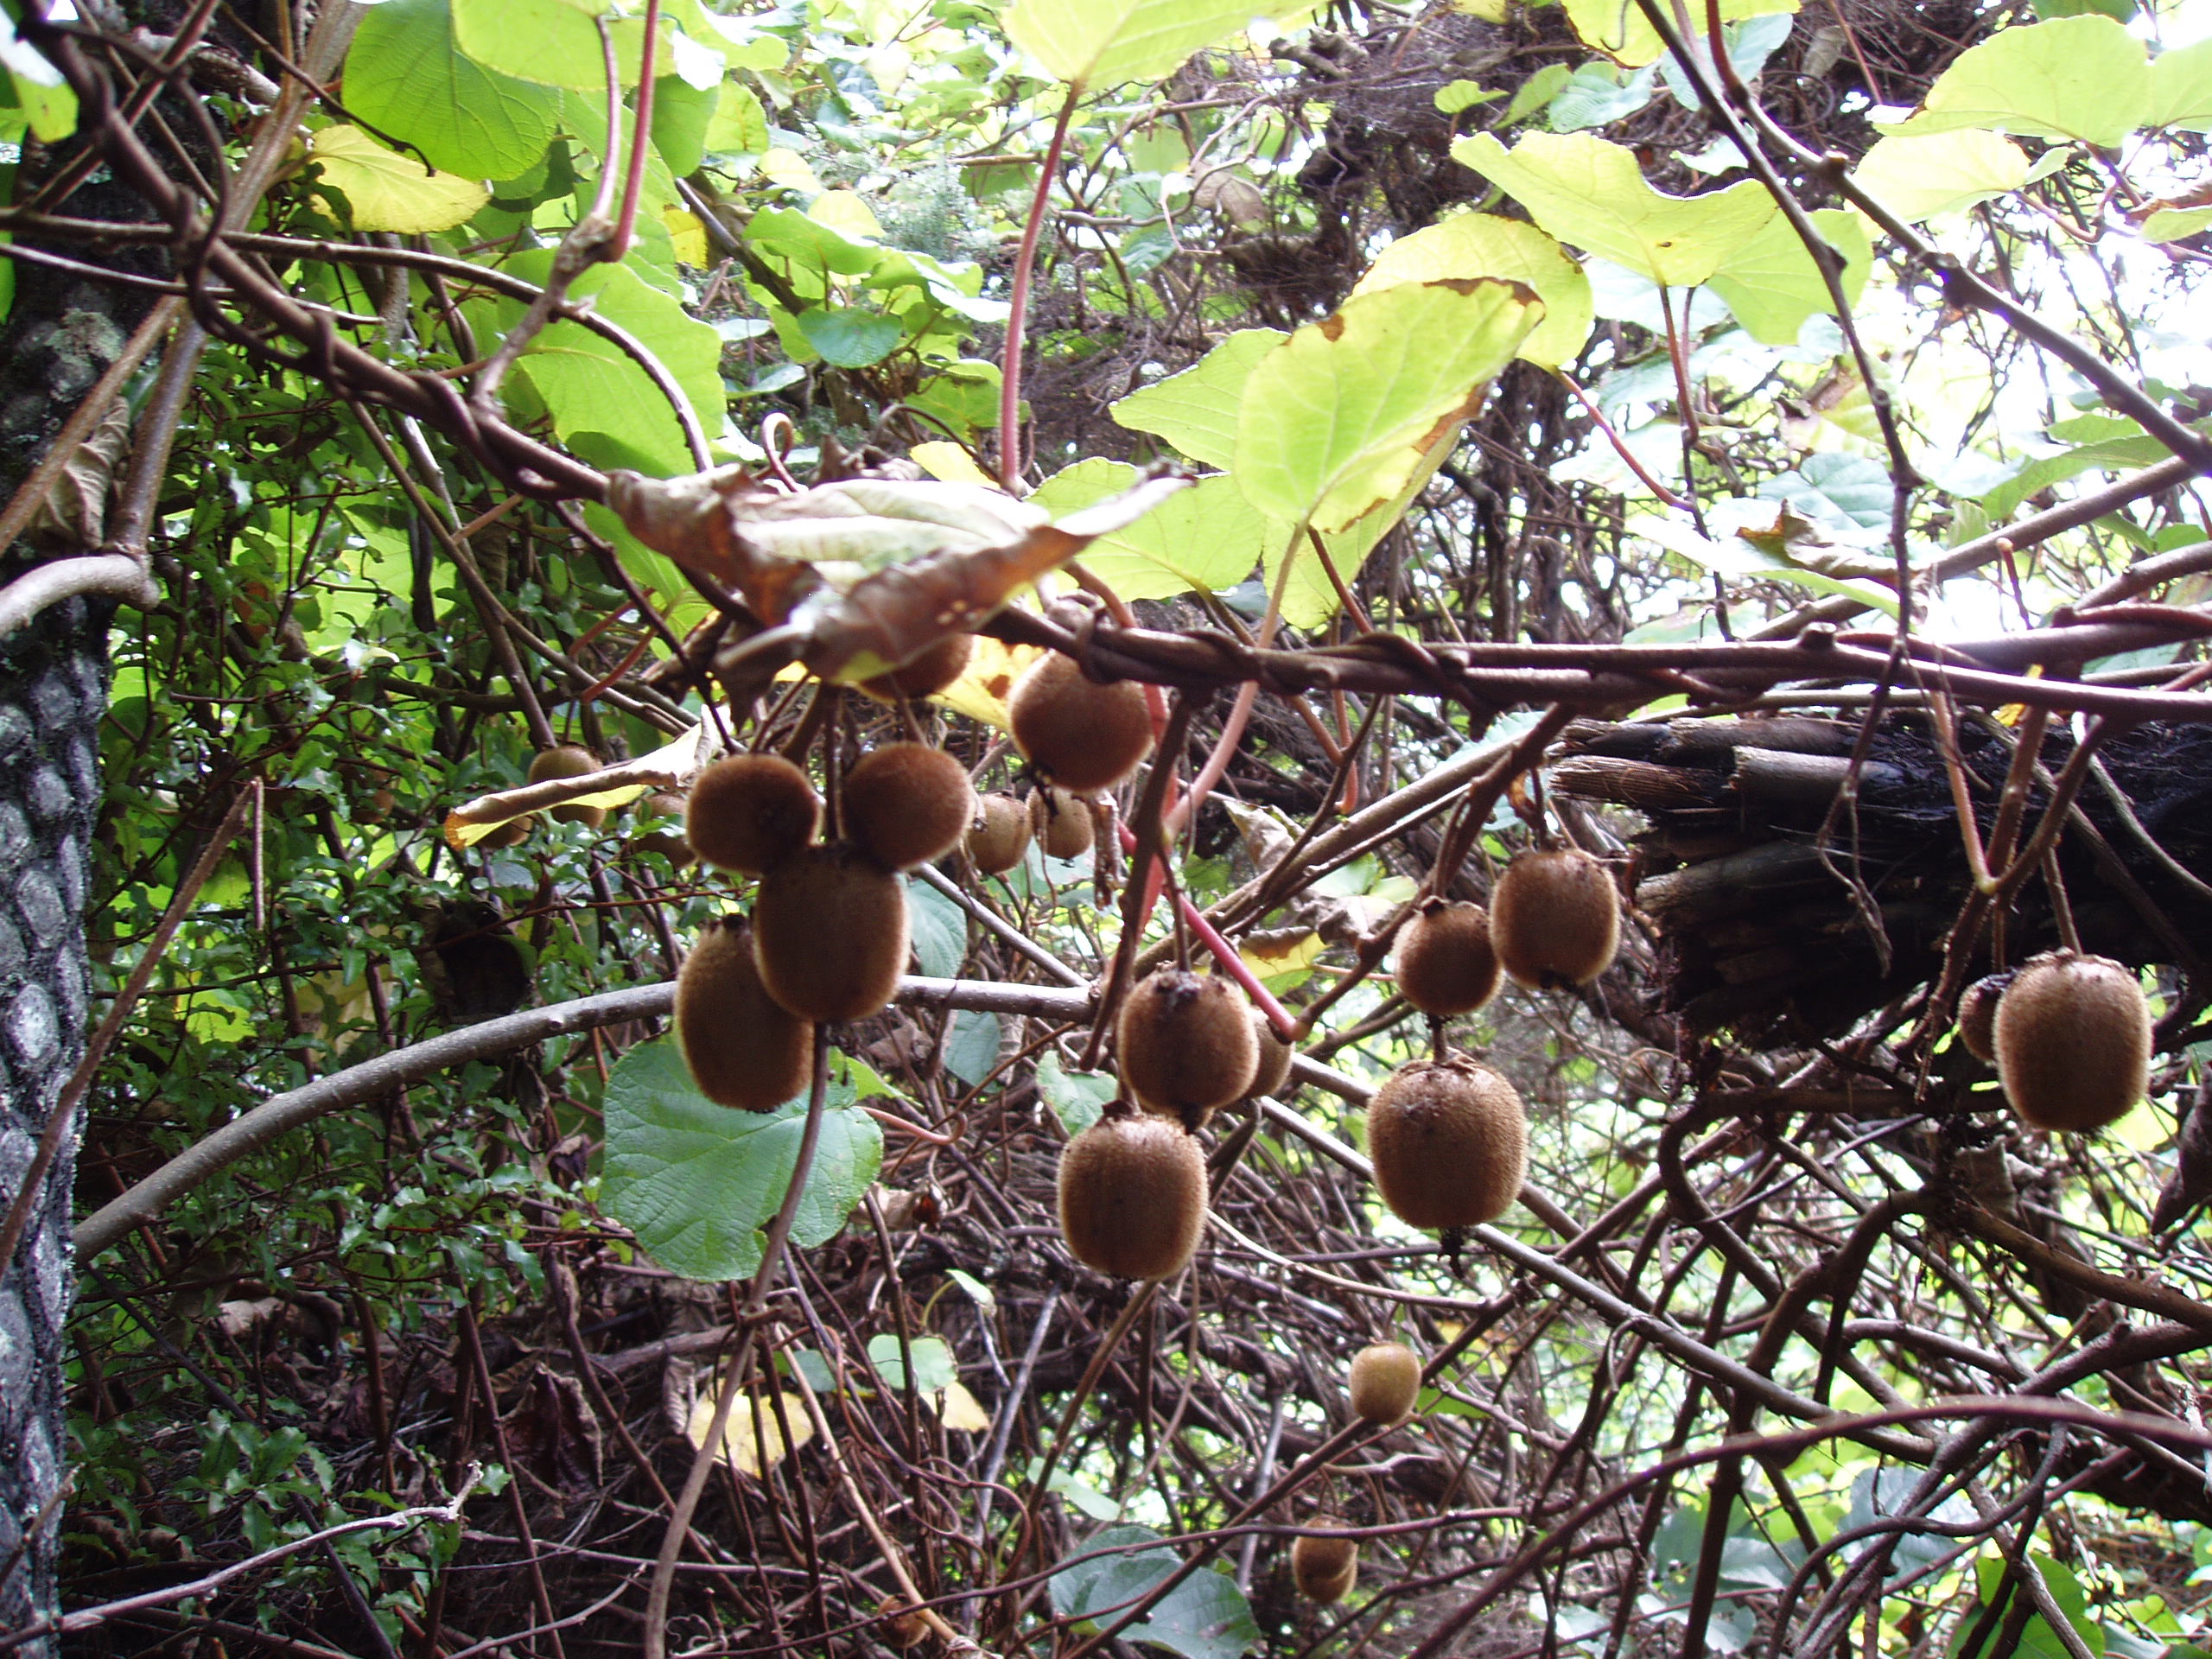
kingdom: Plantae
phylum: Tracheophyta
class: Magnoliopsida
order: Ericales
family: Actinidiaceae
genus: Actinidia
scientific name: Actinidia chinensis
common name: Kiwi
